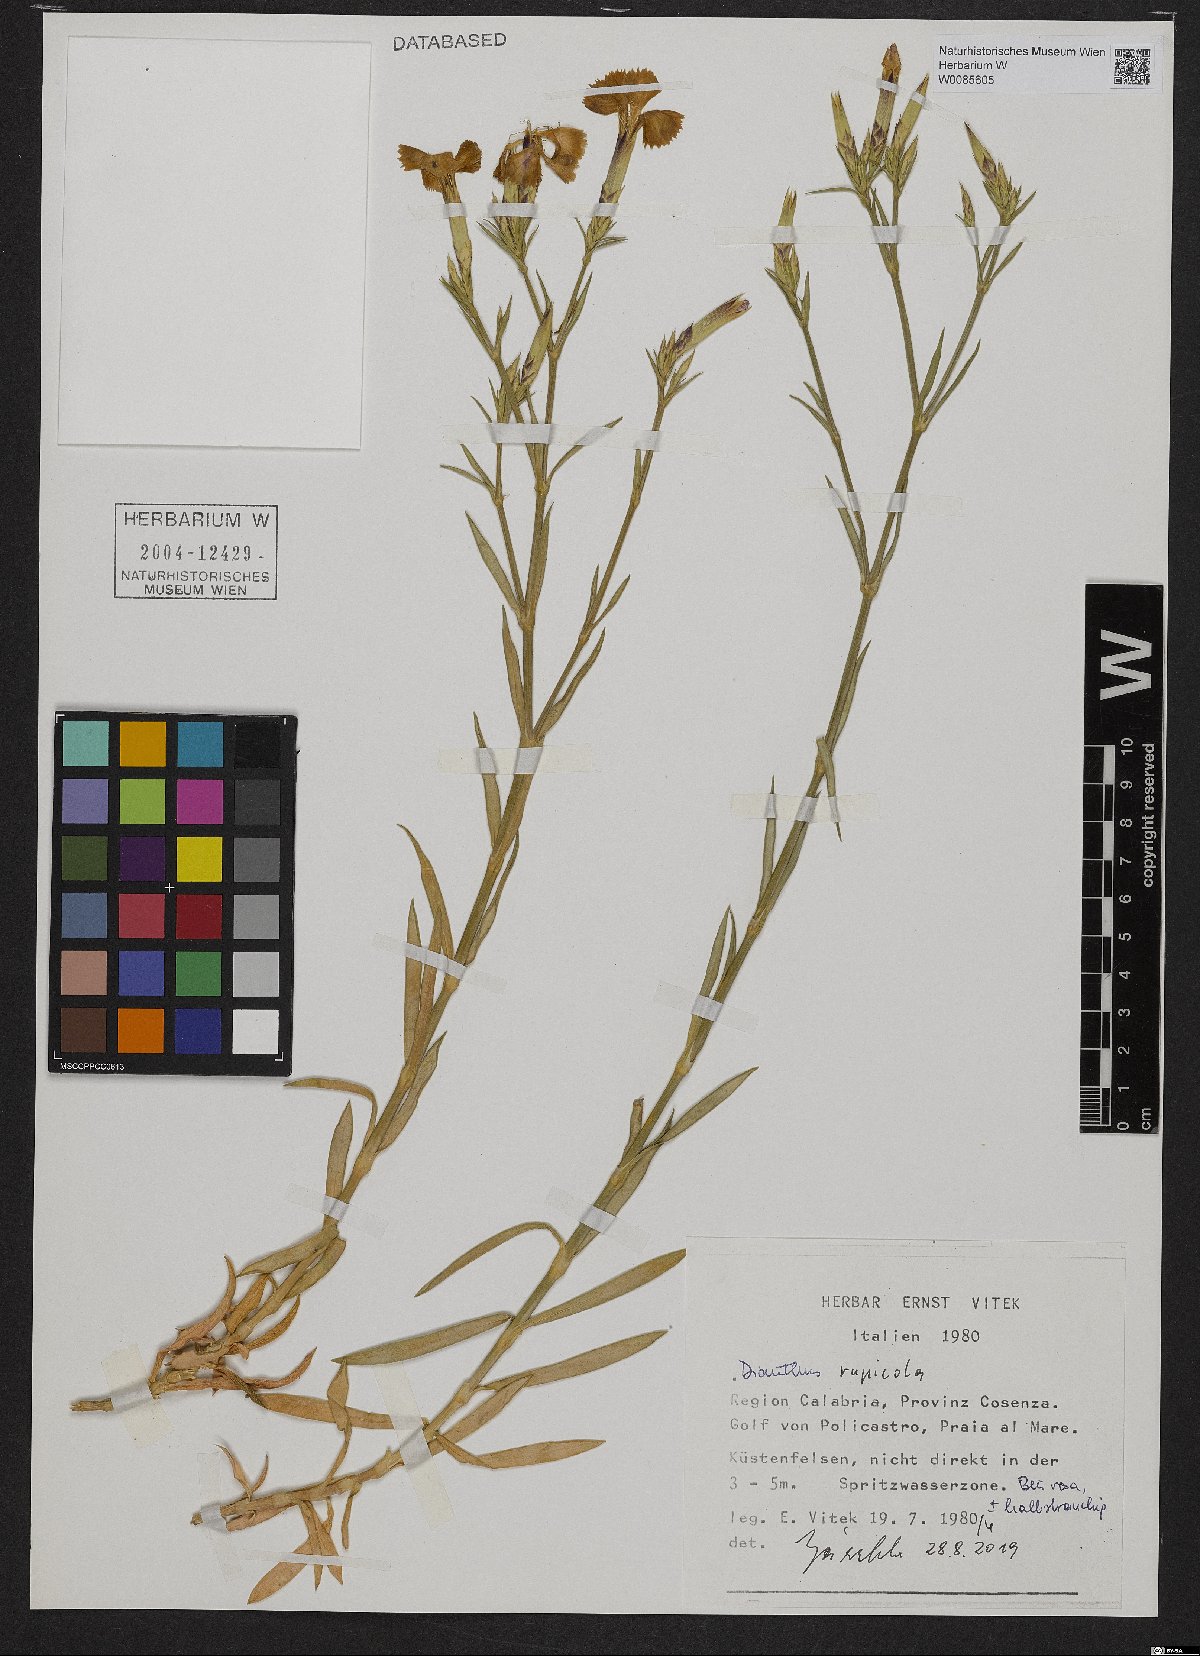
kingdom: Plantae
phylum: Tracheophyta
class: Magnoliopsida
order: Caryophyllales
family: Caryophyllaceae
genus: Dianthus
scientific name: Dianthus rupicola
